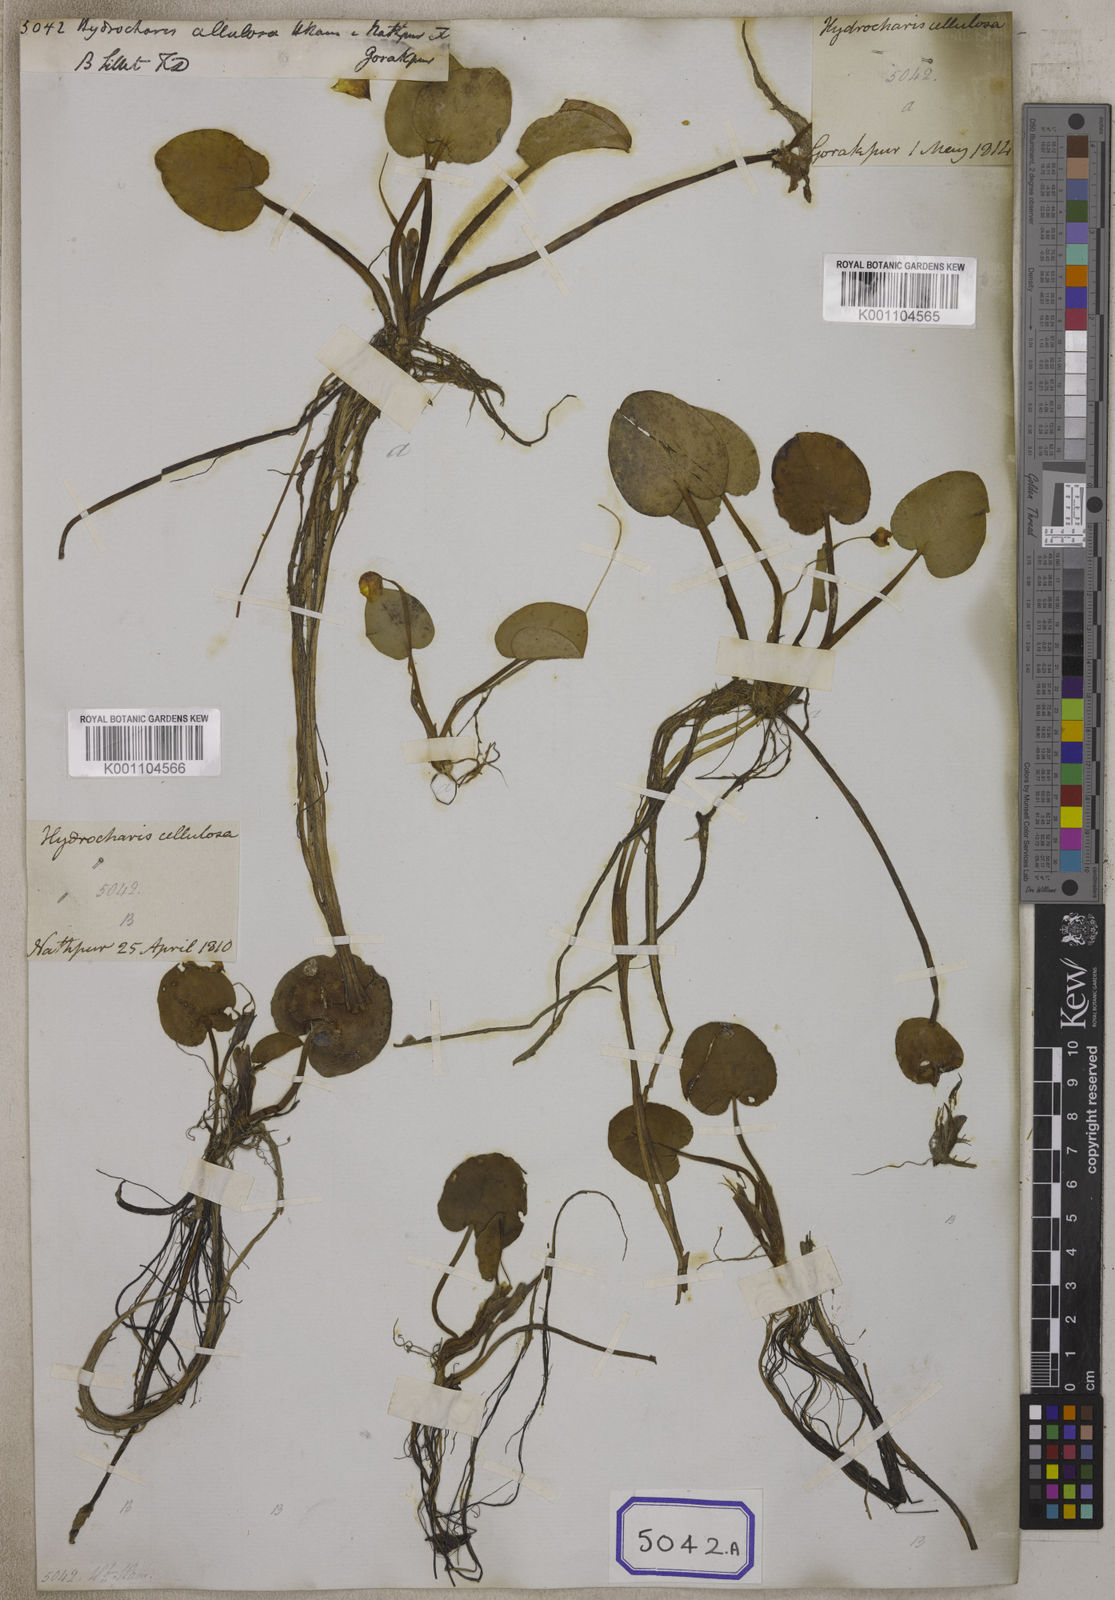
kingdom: Plantae
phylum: Tracheophyta
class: Liliopsida
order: Alismatales
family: Hydrocharitaceae
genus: Hydrocharis
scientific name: Hydrocharis
